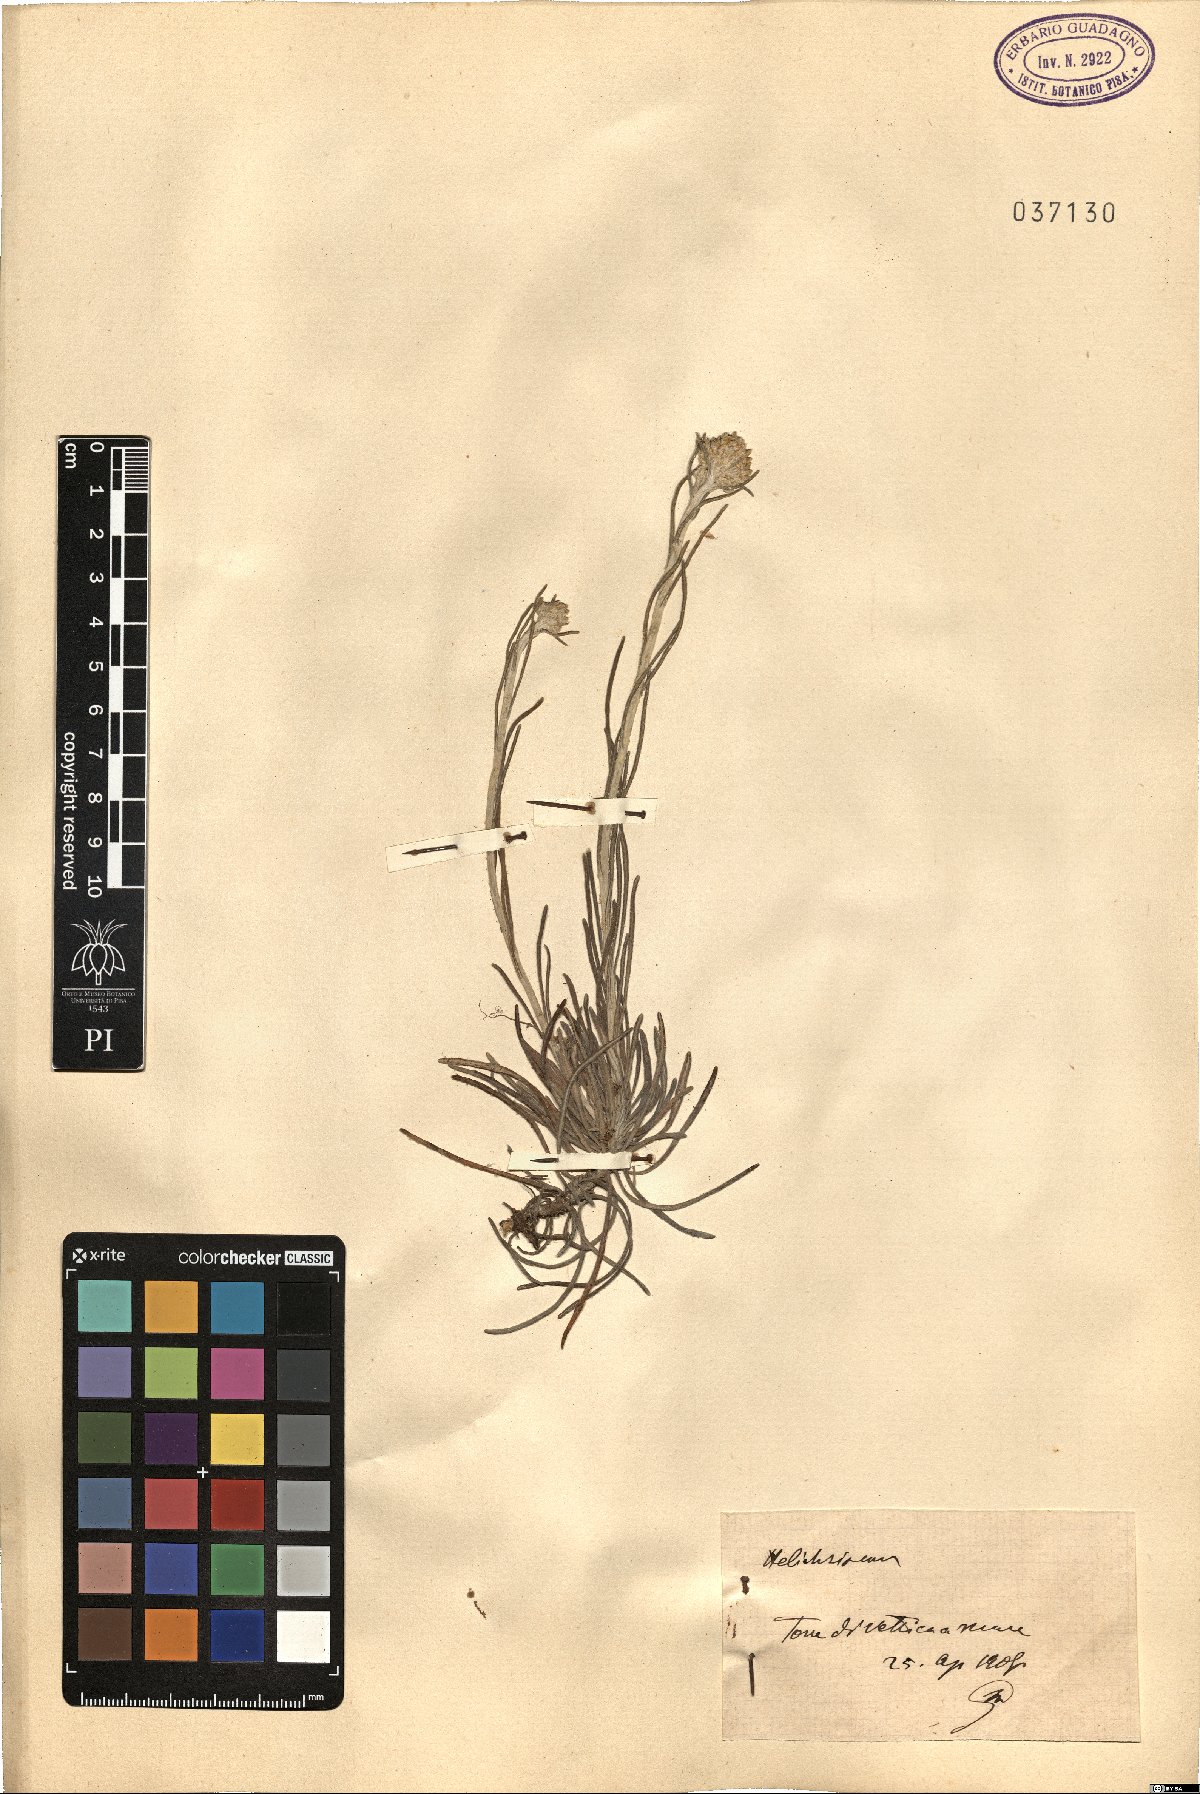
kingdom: Plantae
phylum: Tracheophyta
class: Magnoliopsida
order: Asterales
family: Asteraceae
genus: Helichrysum
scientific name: Helichrysum
